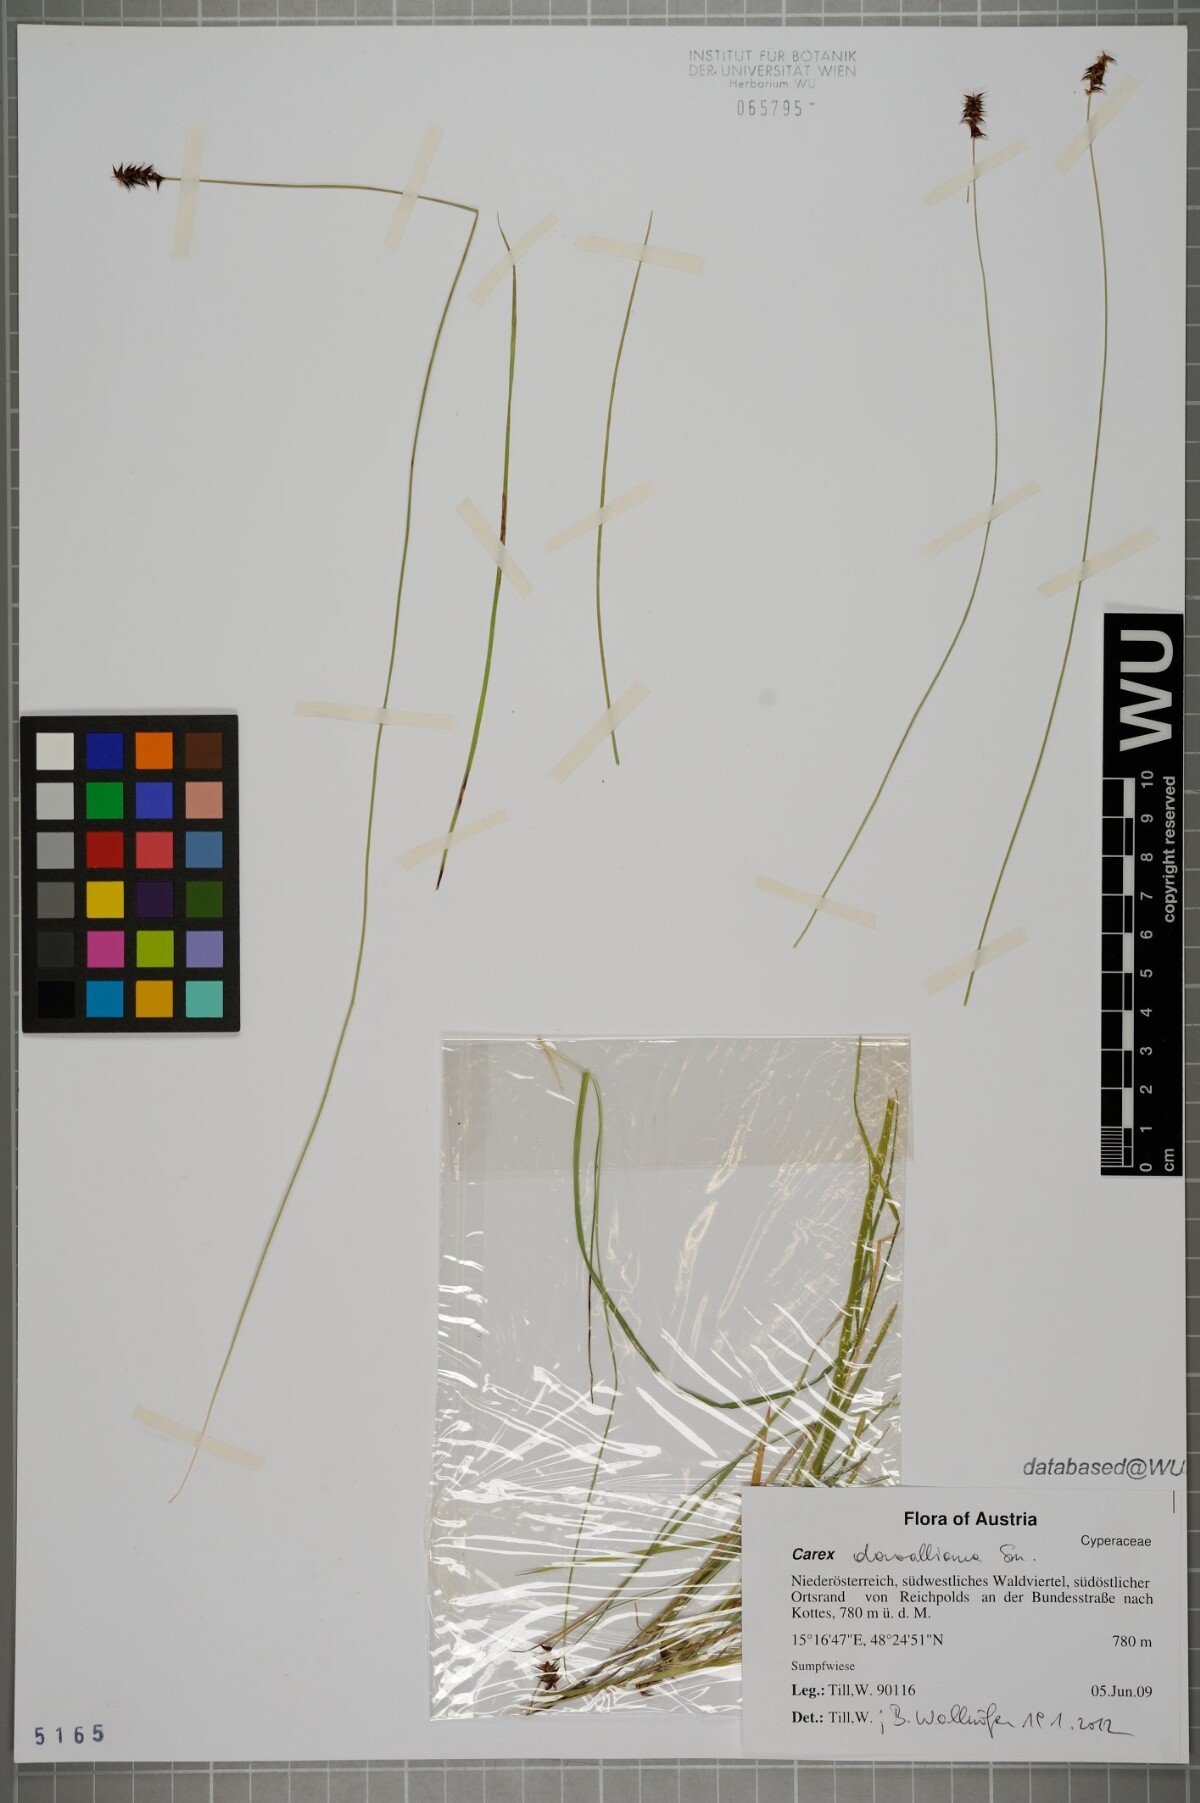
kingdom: Plantae
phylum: Tracheophyta
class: Liliopsida
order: Poales
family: Cyperaceae
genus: Carex
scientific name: Carex davalliana
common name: Davall's sedge
